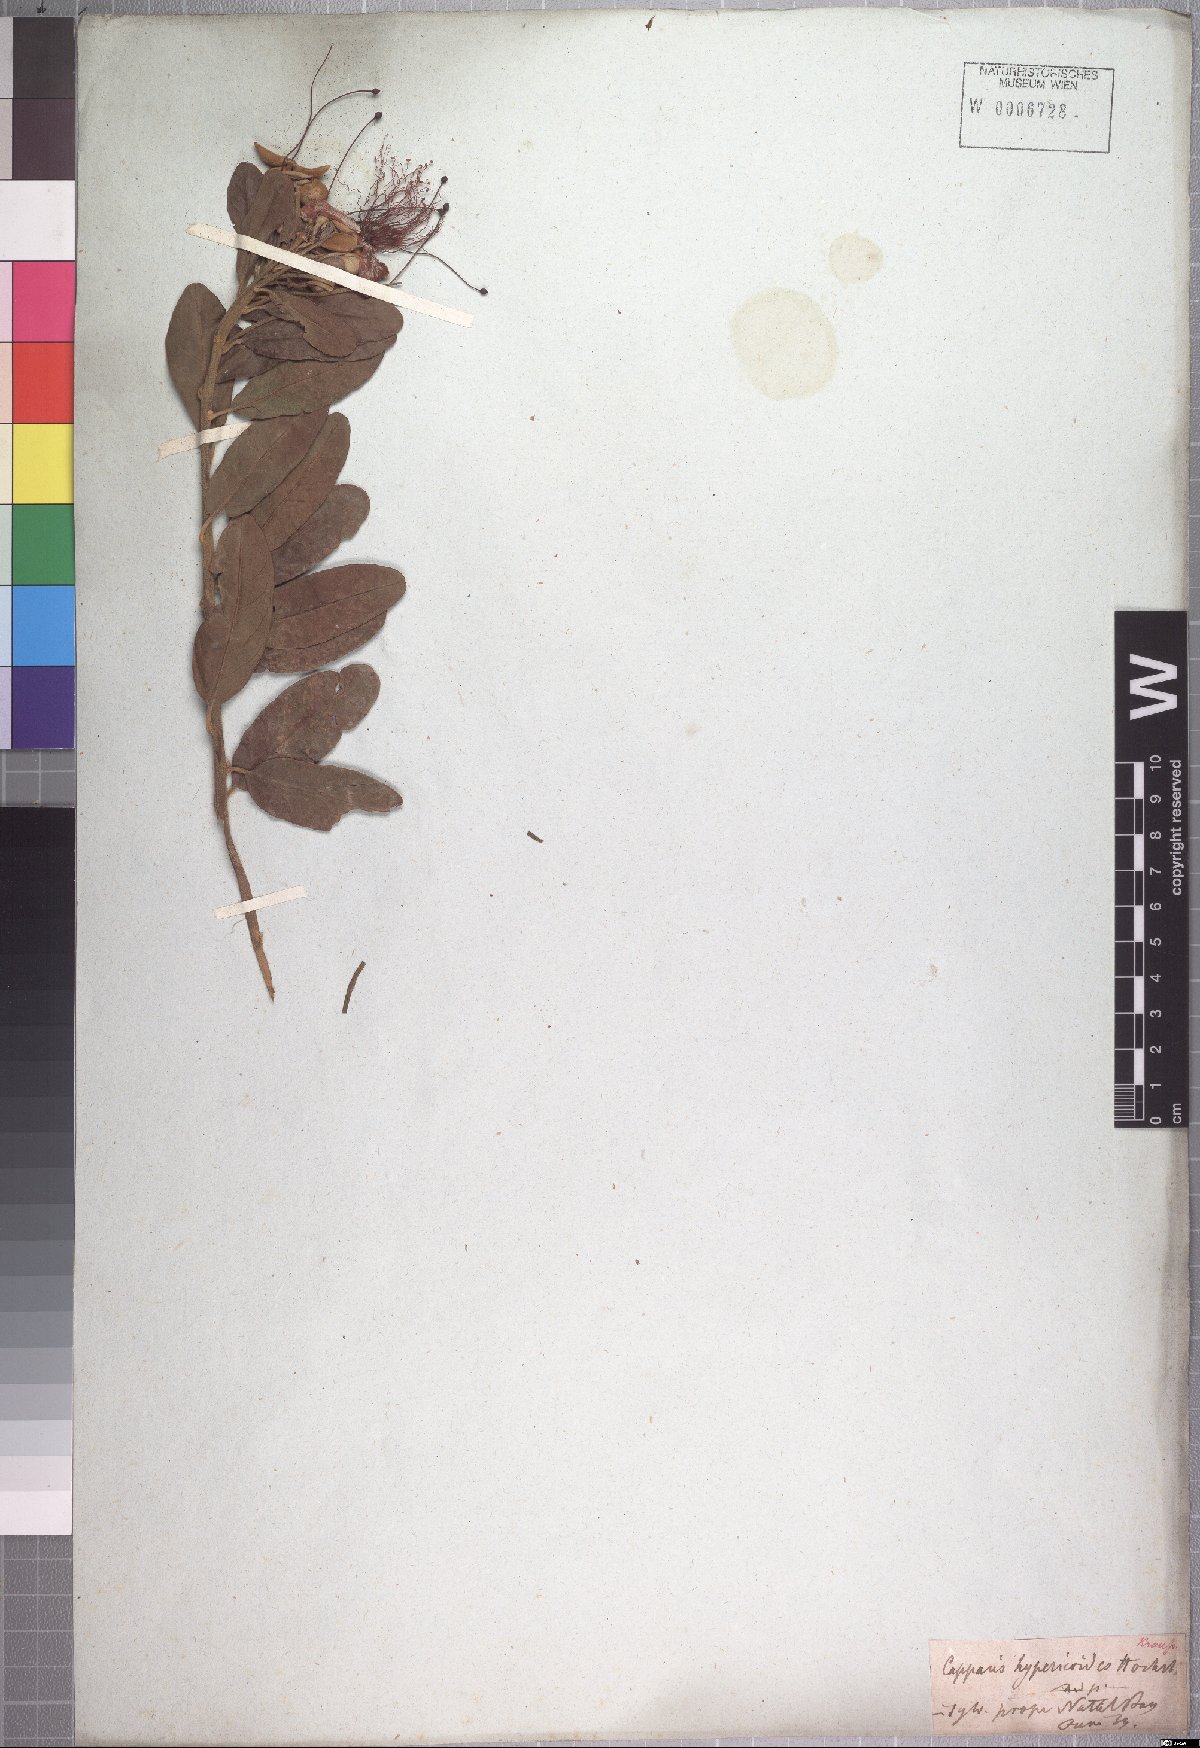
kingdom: Plantae
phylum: Tracheophyta
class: Magnoliopsida
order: Brassicales
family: Capparaceae
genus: Capparis
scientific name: Capparis tomentosa
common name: African caper
